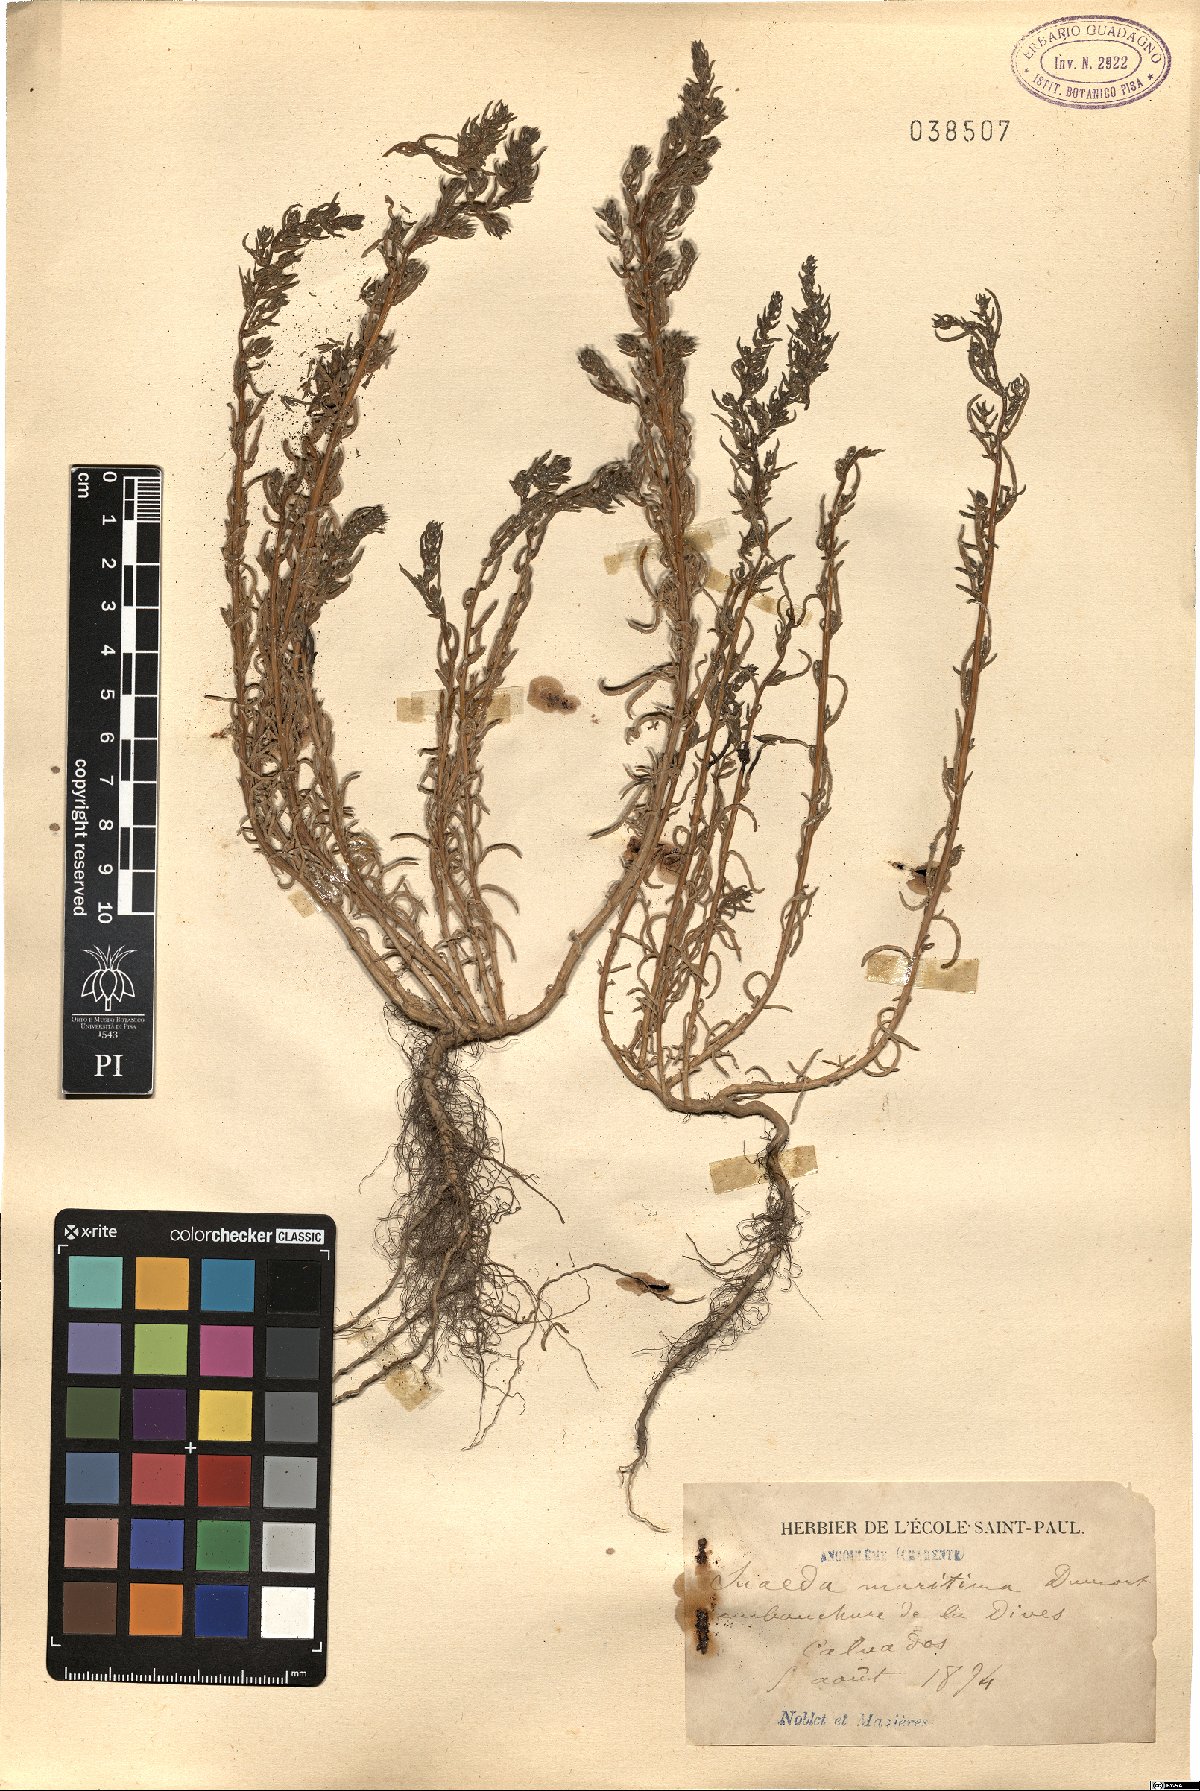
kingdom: Plantae
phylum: Tracheophyta
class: Magnoliopsida
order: Caryophyllales
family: Amaranthaceae
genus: Suaeda
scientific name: Suaeda maritima
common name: Annual sea-blite
